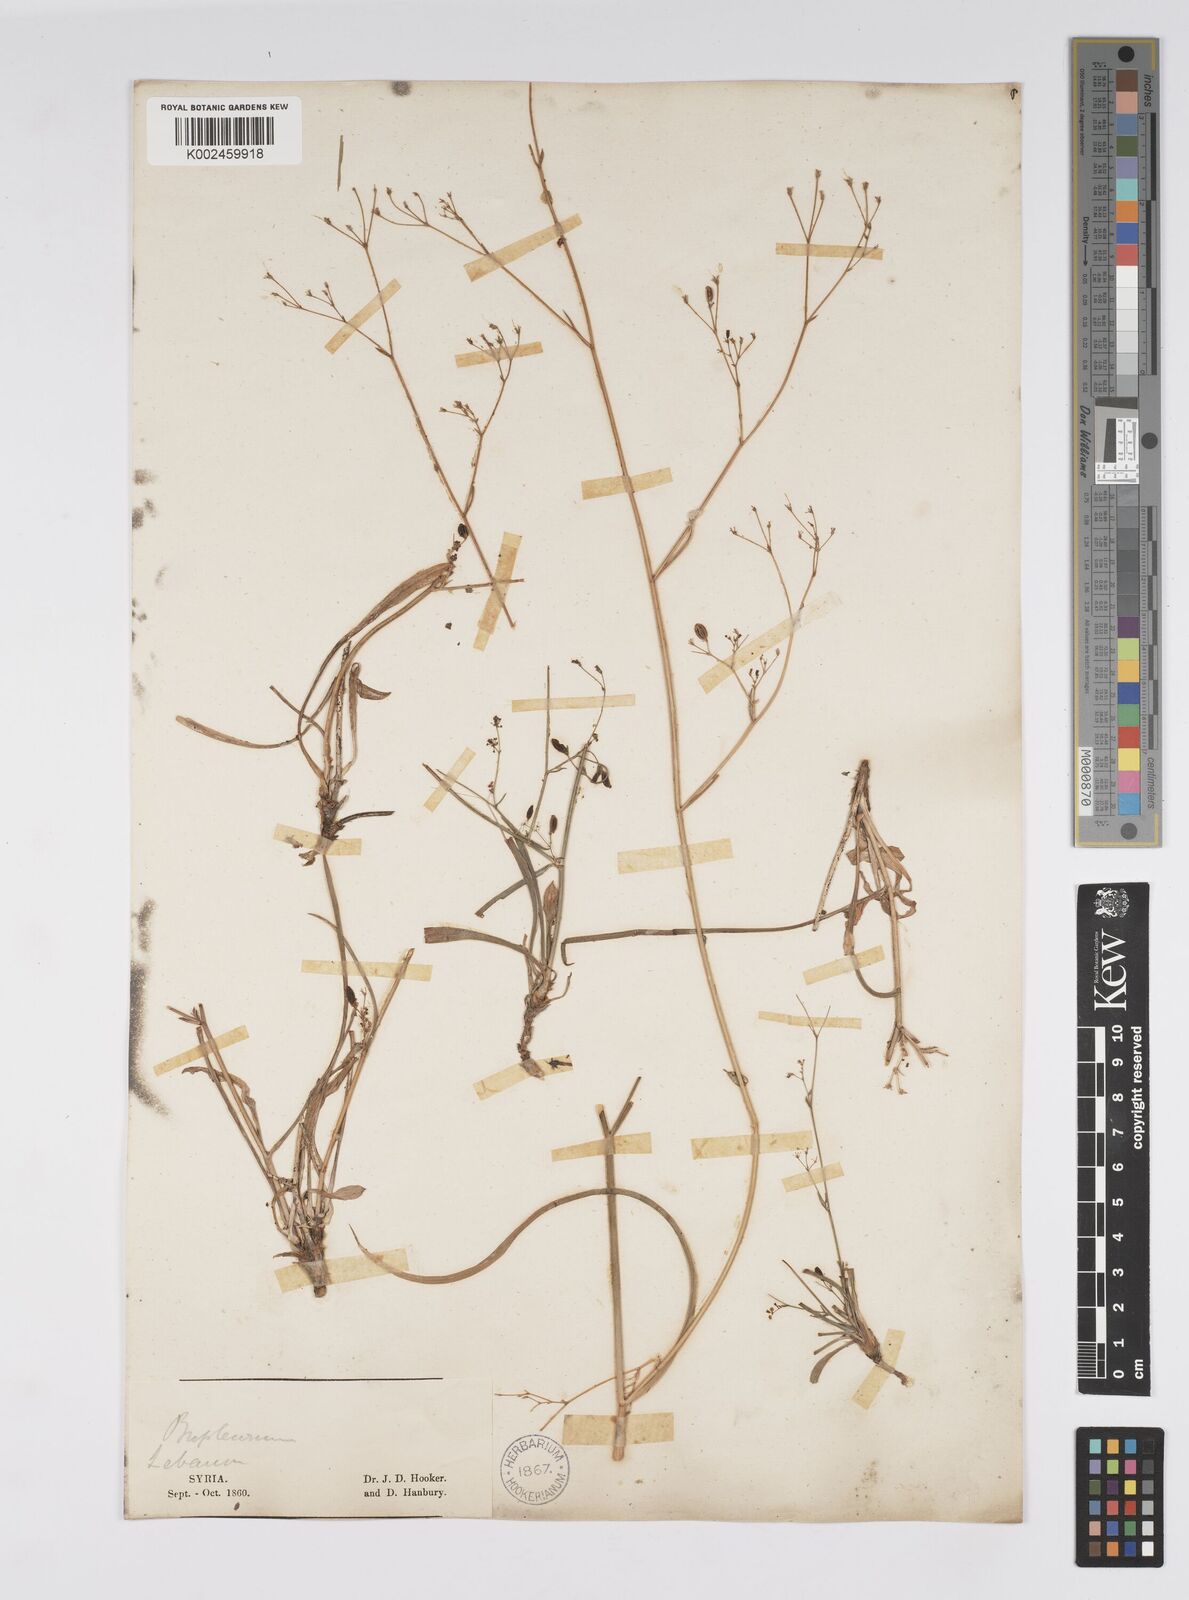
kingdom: Plantae
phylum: Tracheophyta
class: Magnoliopsida
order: Apiales
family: Apiaceae
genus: Bupleurum
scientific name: Bupleurum falcatum
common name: Sickle-leaved hare's-ear
